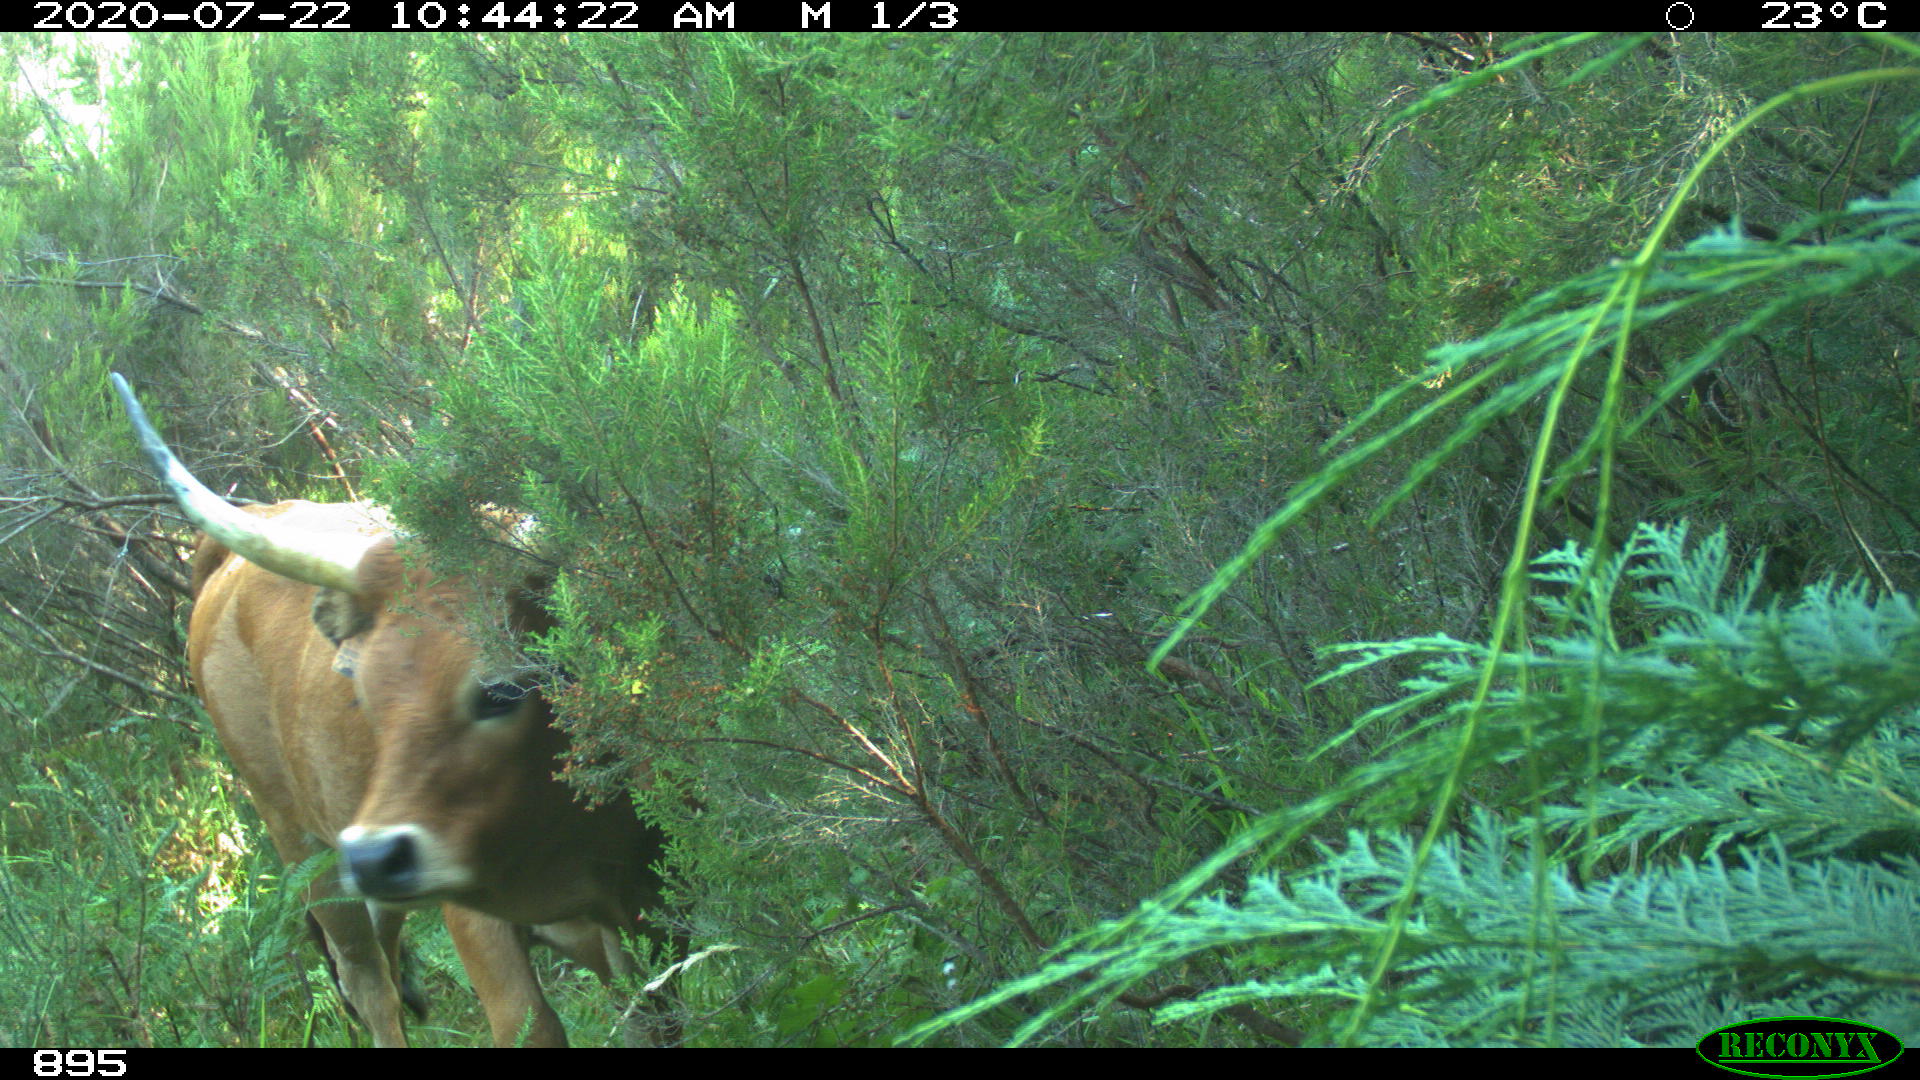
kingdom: Animalia
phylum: Chordata
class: Mammalia
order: Artiodactyla
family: Bovidae
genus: Bos
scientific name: Bos taurus
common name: Domesticated cattle
